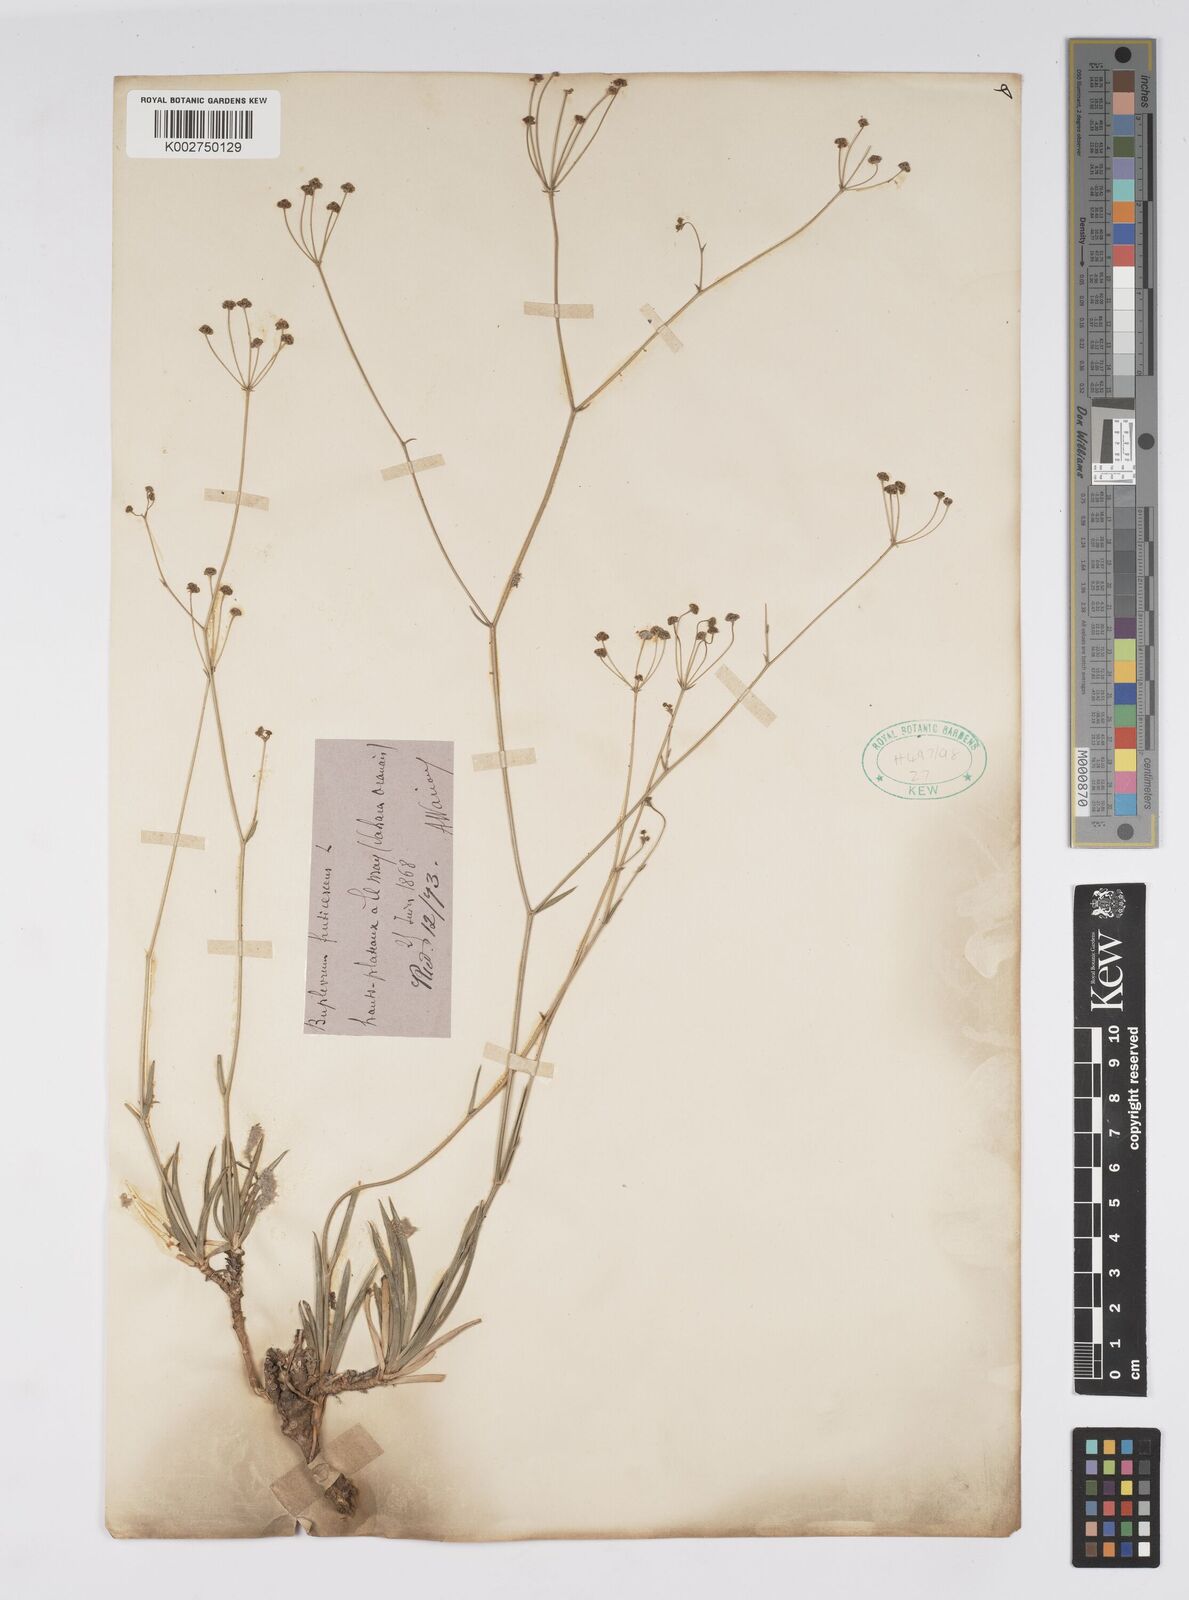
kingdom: Plantae
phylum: Tracheophyta
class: Magnoliopsida
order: Apiales
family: Apiaceae
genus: Bupleurum
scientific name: Bupleurum balansae
